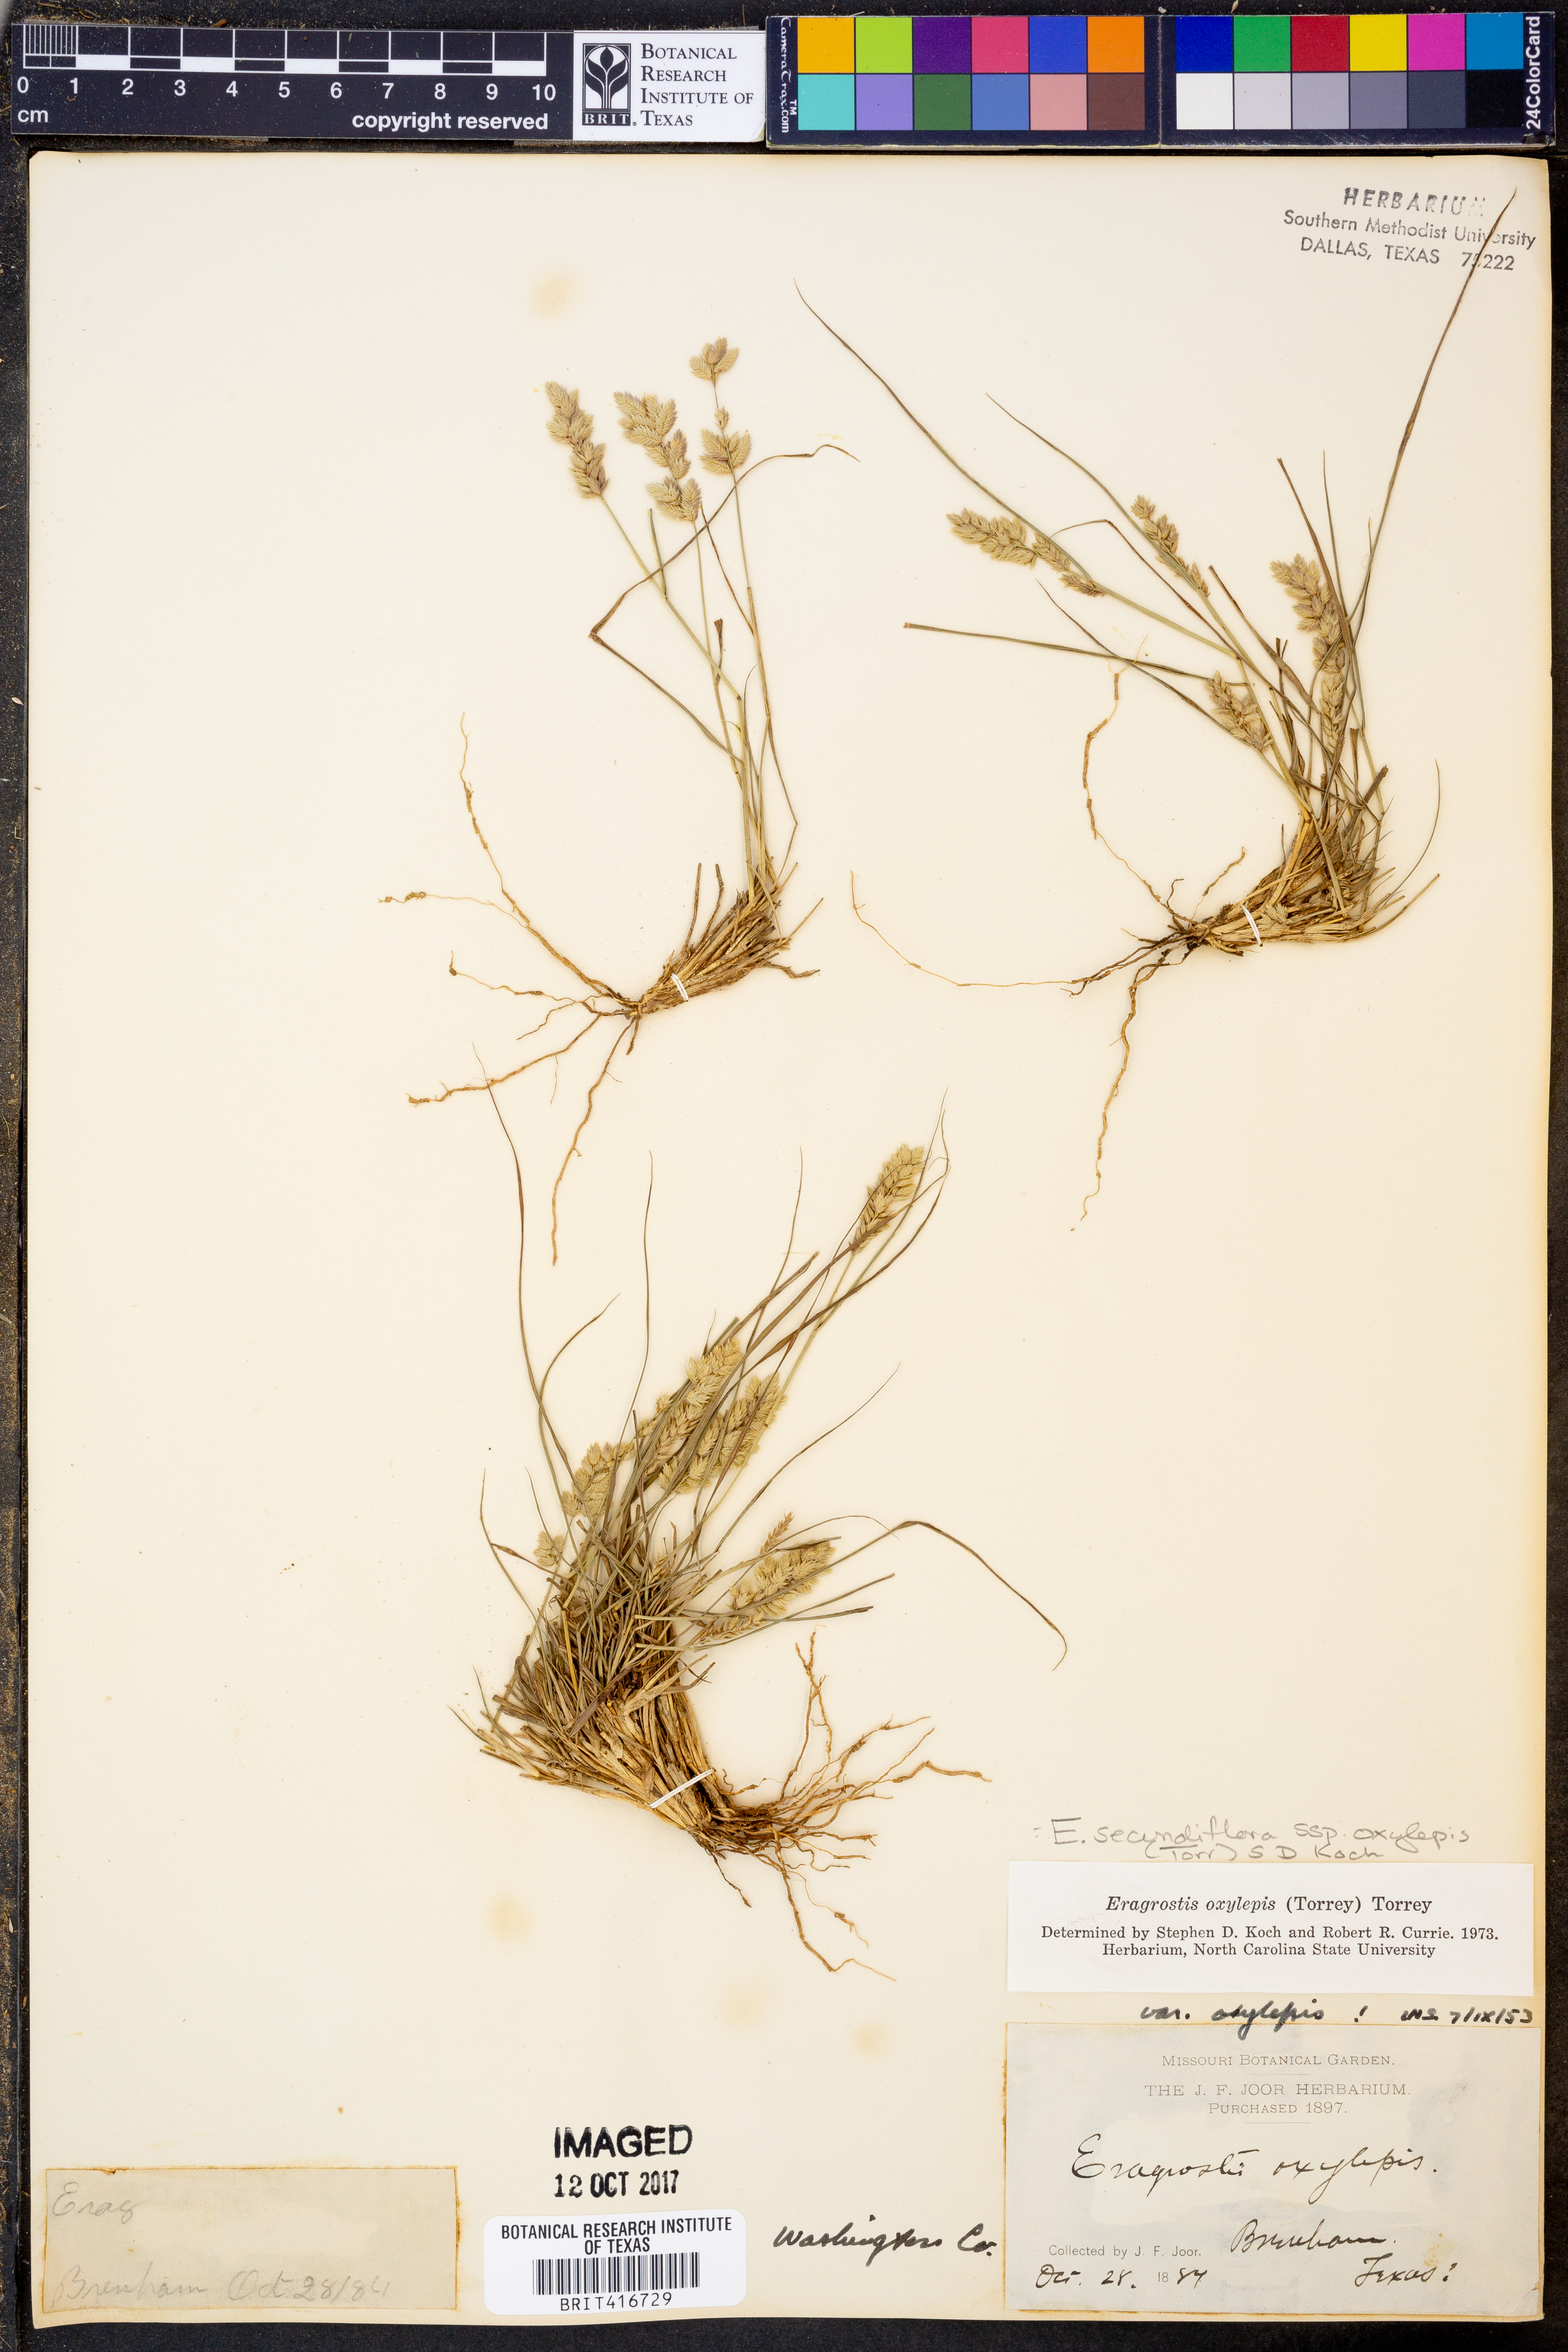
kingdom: Plantae
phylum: Tracheophyta
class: Liliopsida
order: Poales
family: Poaceae
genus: Eragrostis
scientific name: Eragrostis secundiflora
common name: Red love grass
